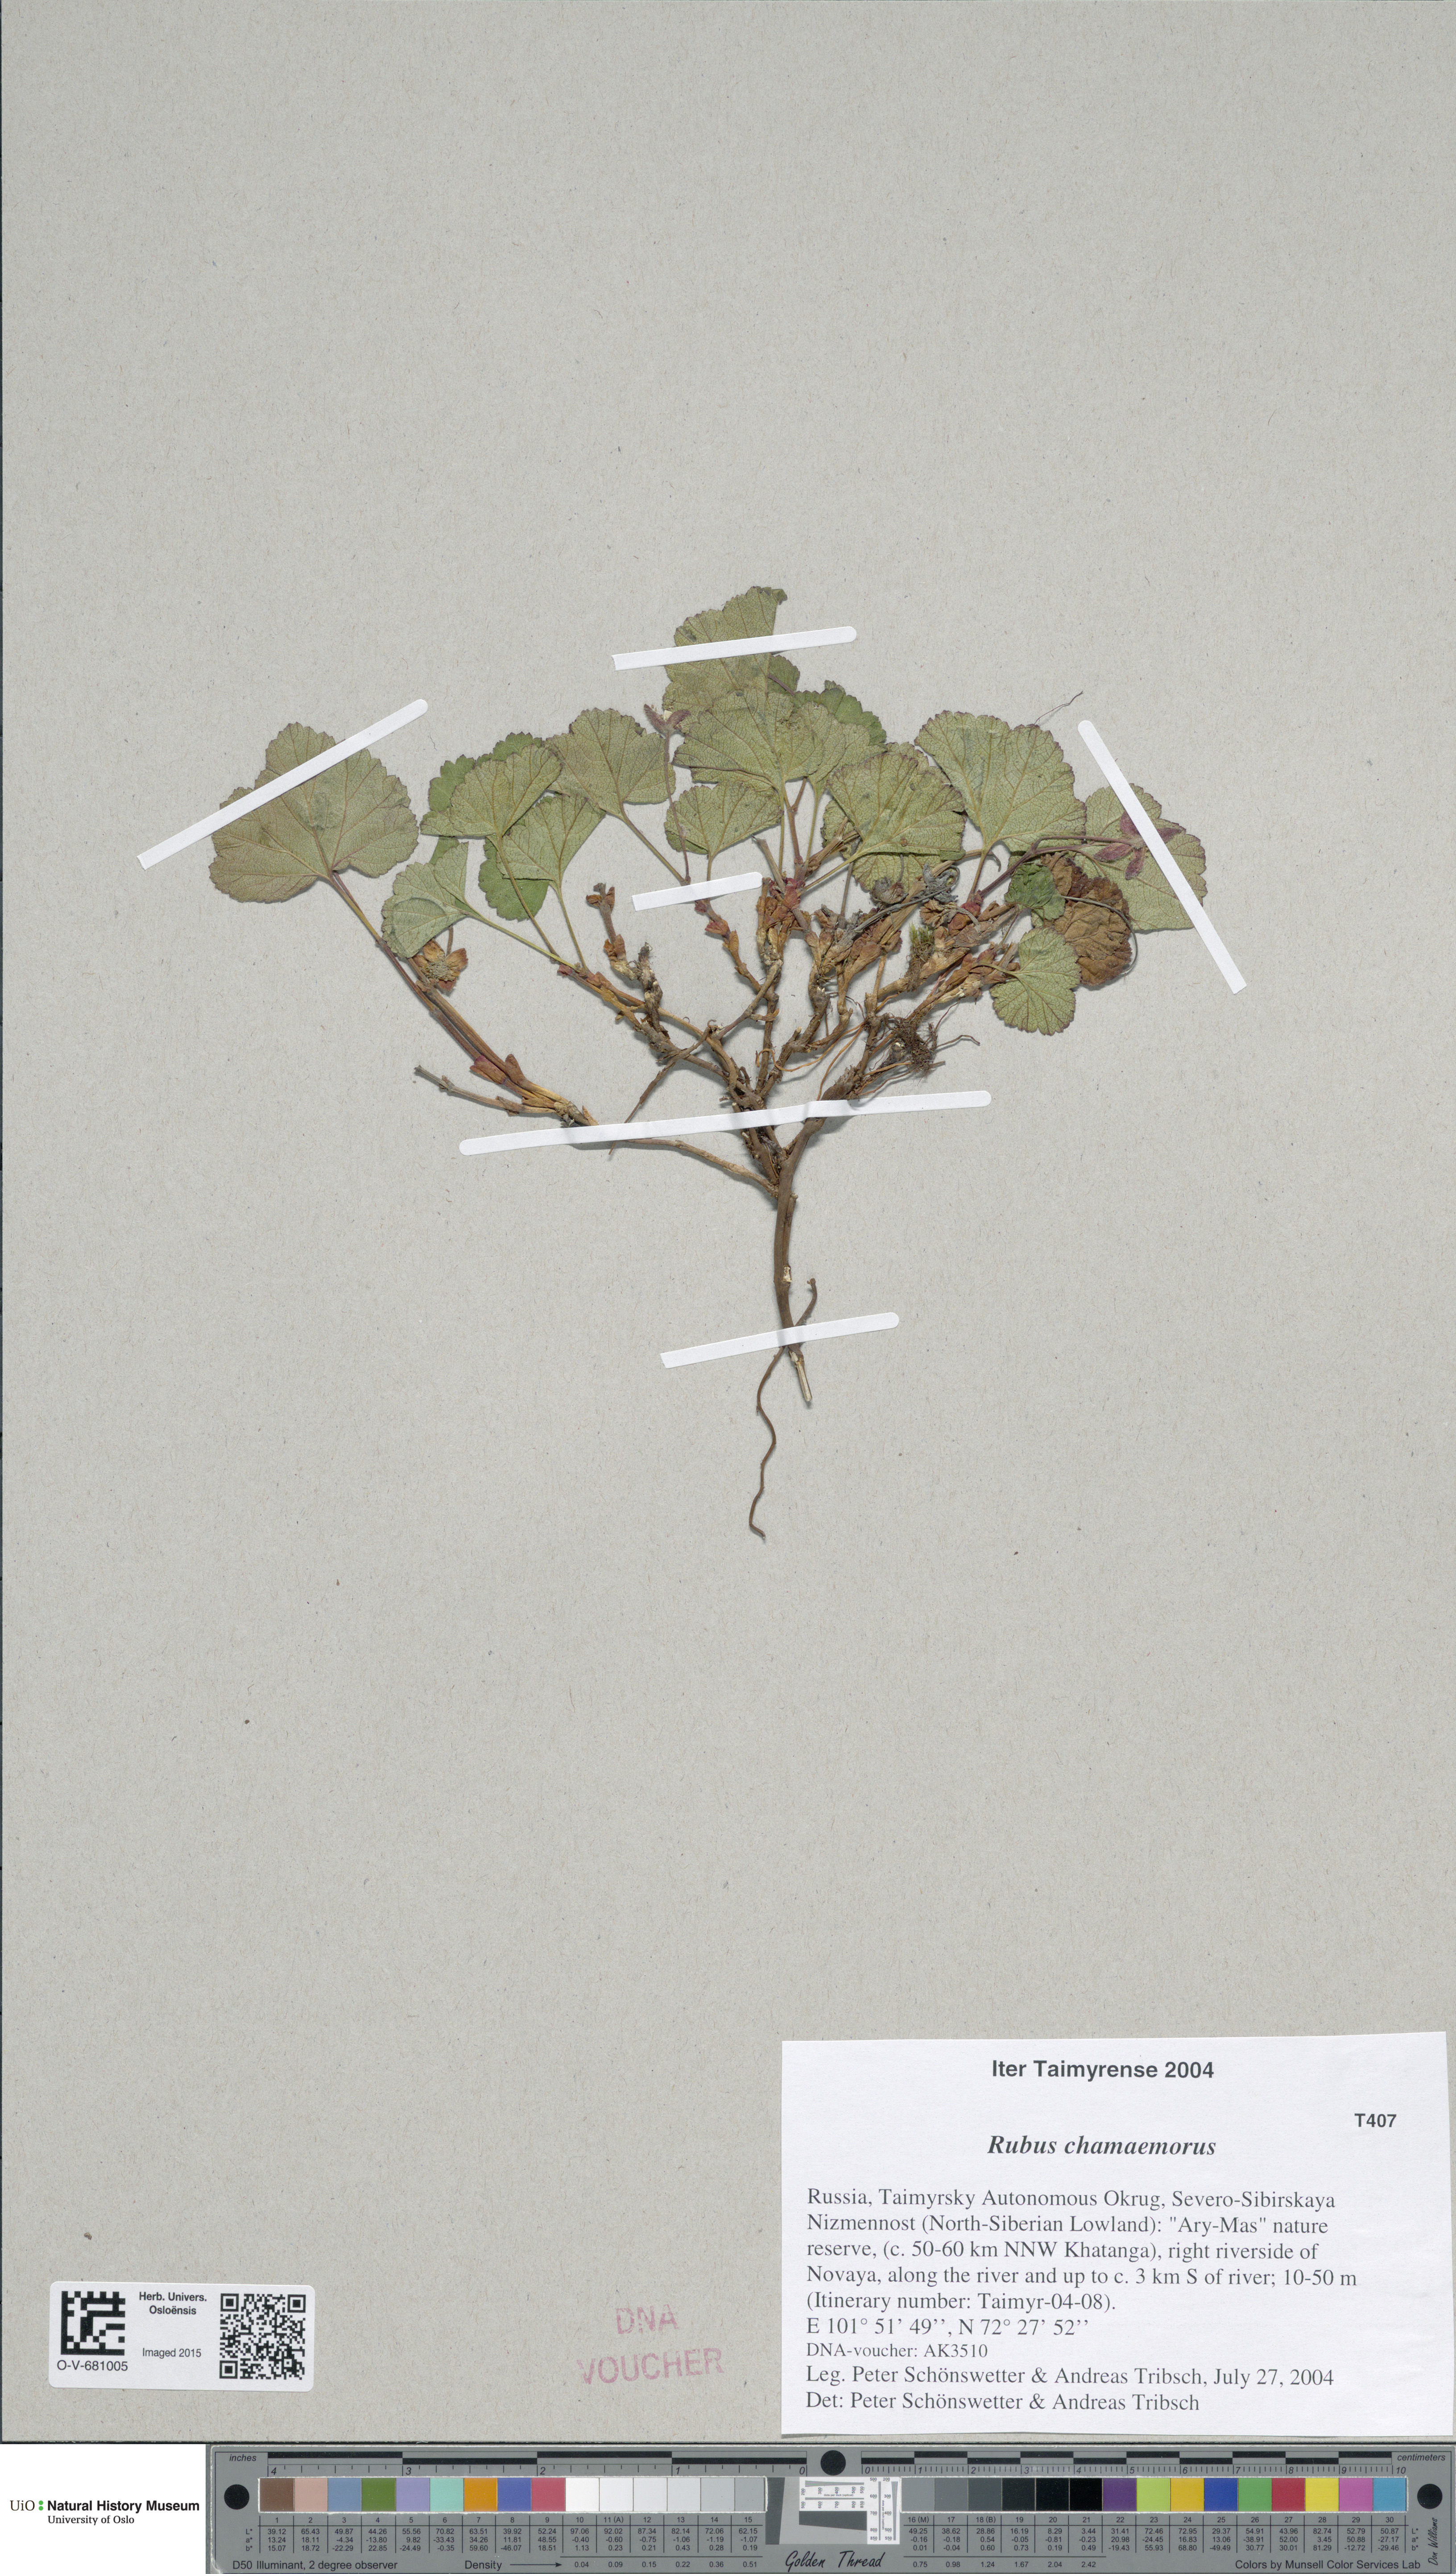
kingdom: Plantae
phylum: Tracheophyta
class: Magnoliopsida
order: Rosales
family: Rosaceae
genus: Rubus
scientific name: Rubus chamaemorus
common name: Cloudberry
